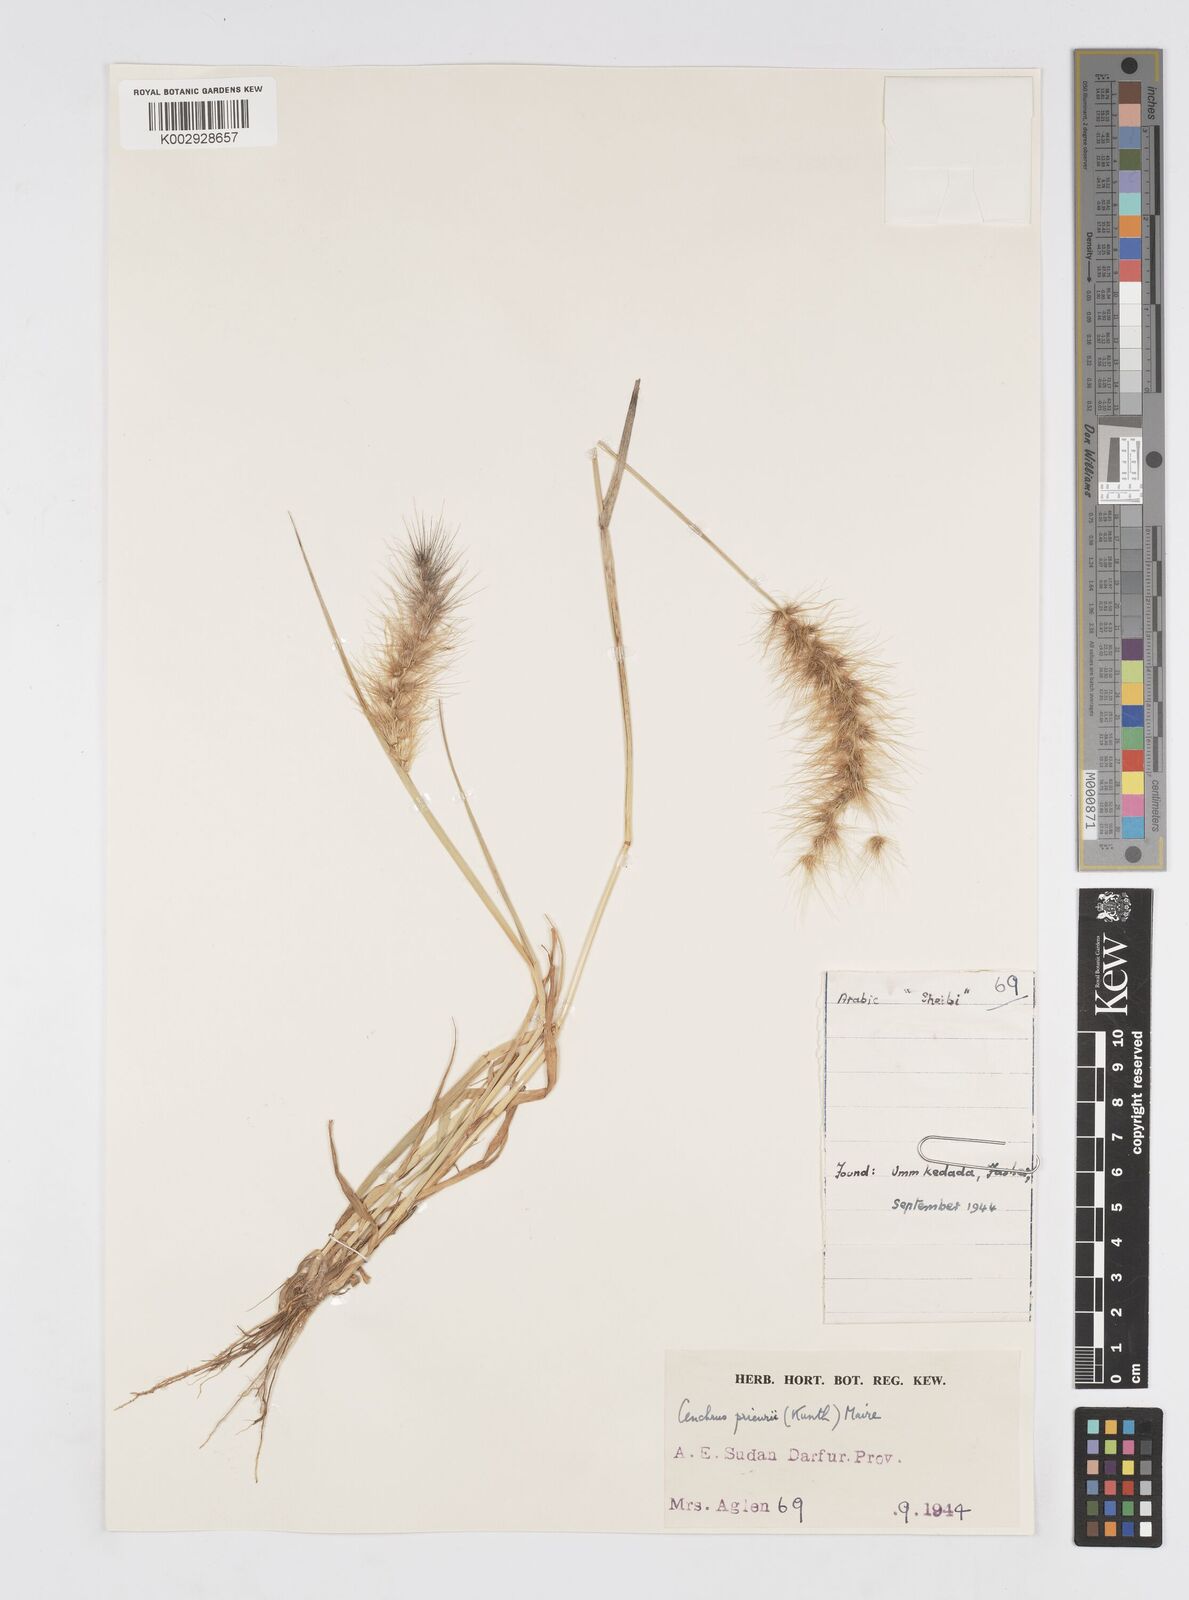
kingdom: Plantae
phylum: Tracheophyta
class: Liliopsida
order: Poales
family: Poaceae
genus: Cenchrus
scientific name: Cenchrus prieurii
